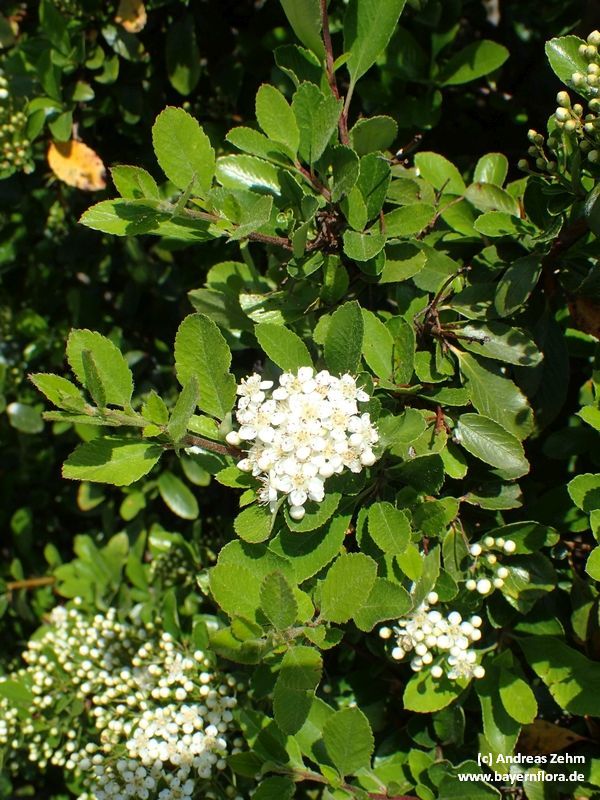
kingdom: Plantae
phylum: Tracheophyta
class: Magnoliopsida
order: Rosales
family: Rosaceae
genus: Pyracantha
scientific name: Pyracantha coccinea
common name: Firethorn
